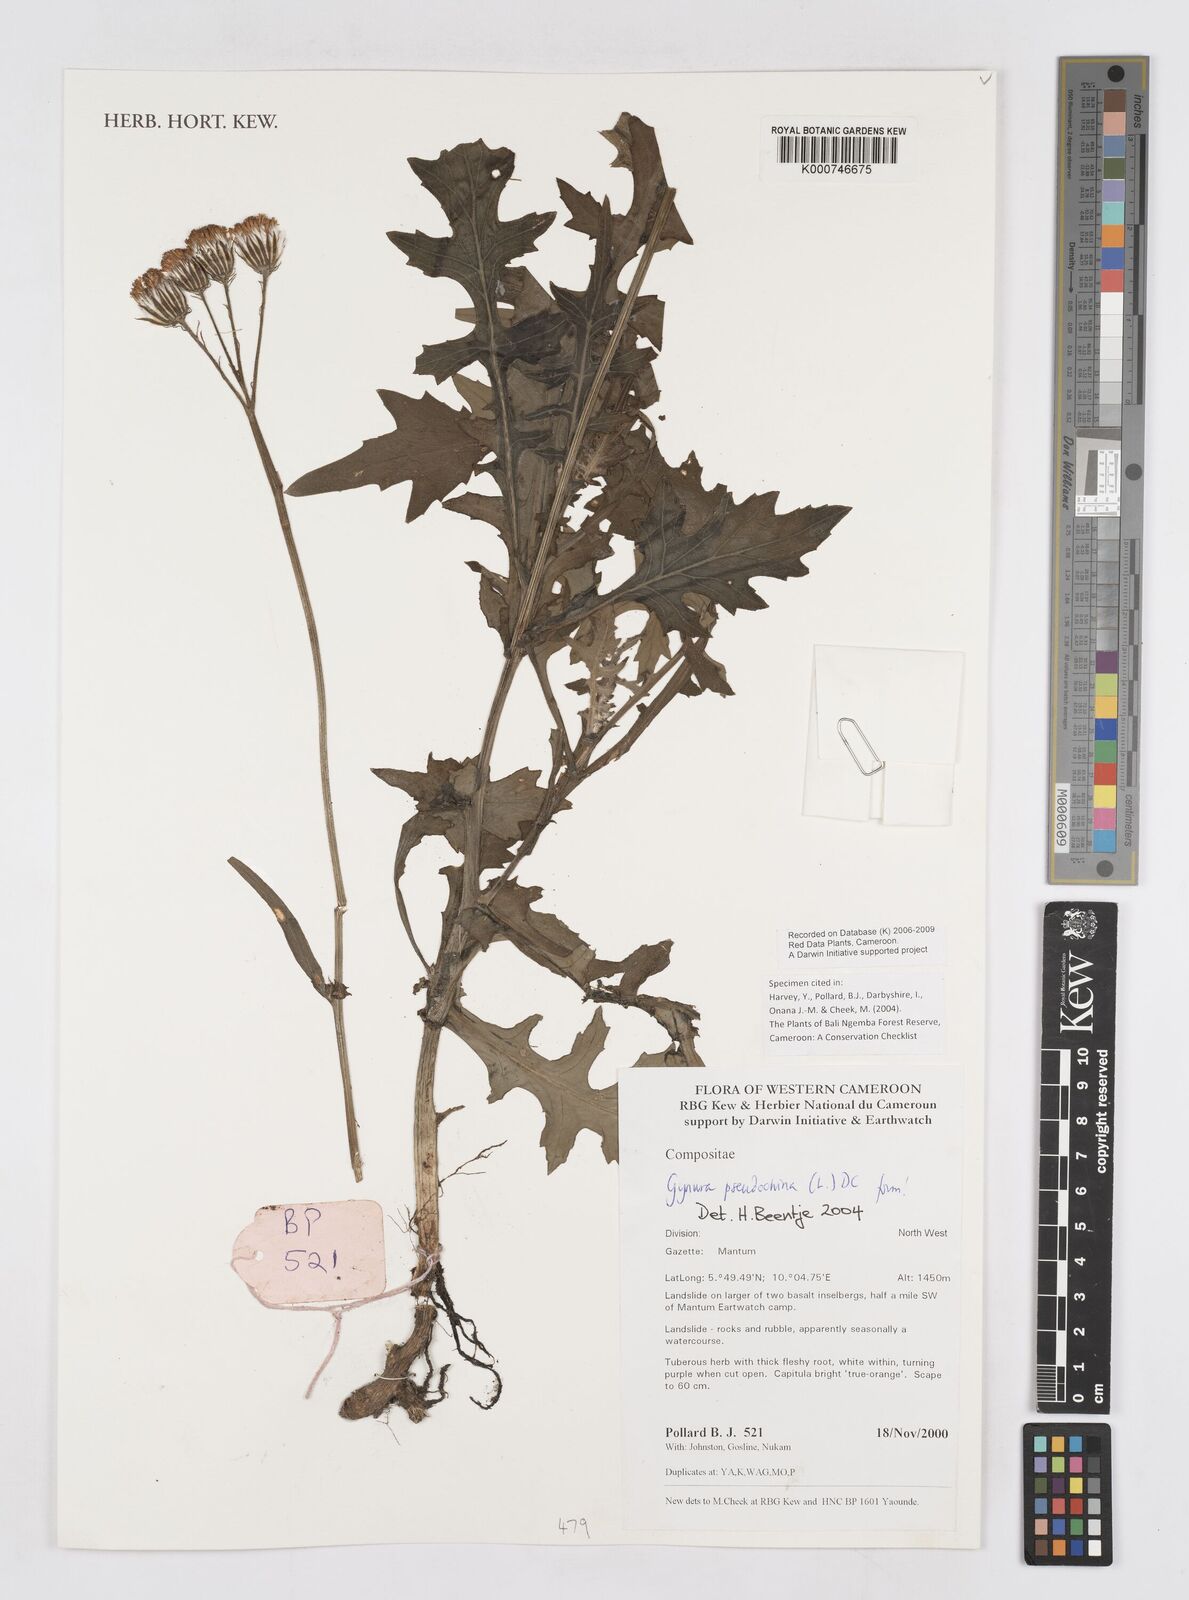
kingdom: Plantae
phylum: Tracheophyta
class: Magnoliopsida
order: Asterales
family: Asteraceae
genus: Gynura
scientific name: Gynura pseudochina
